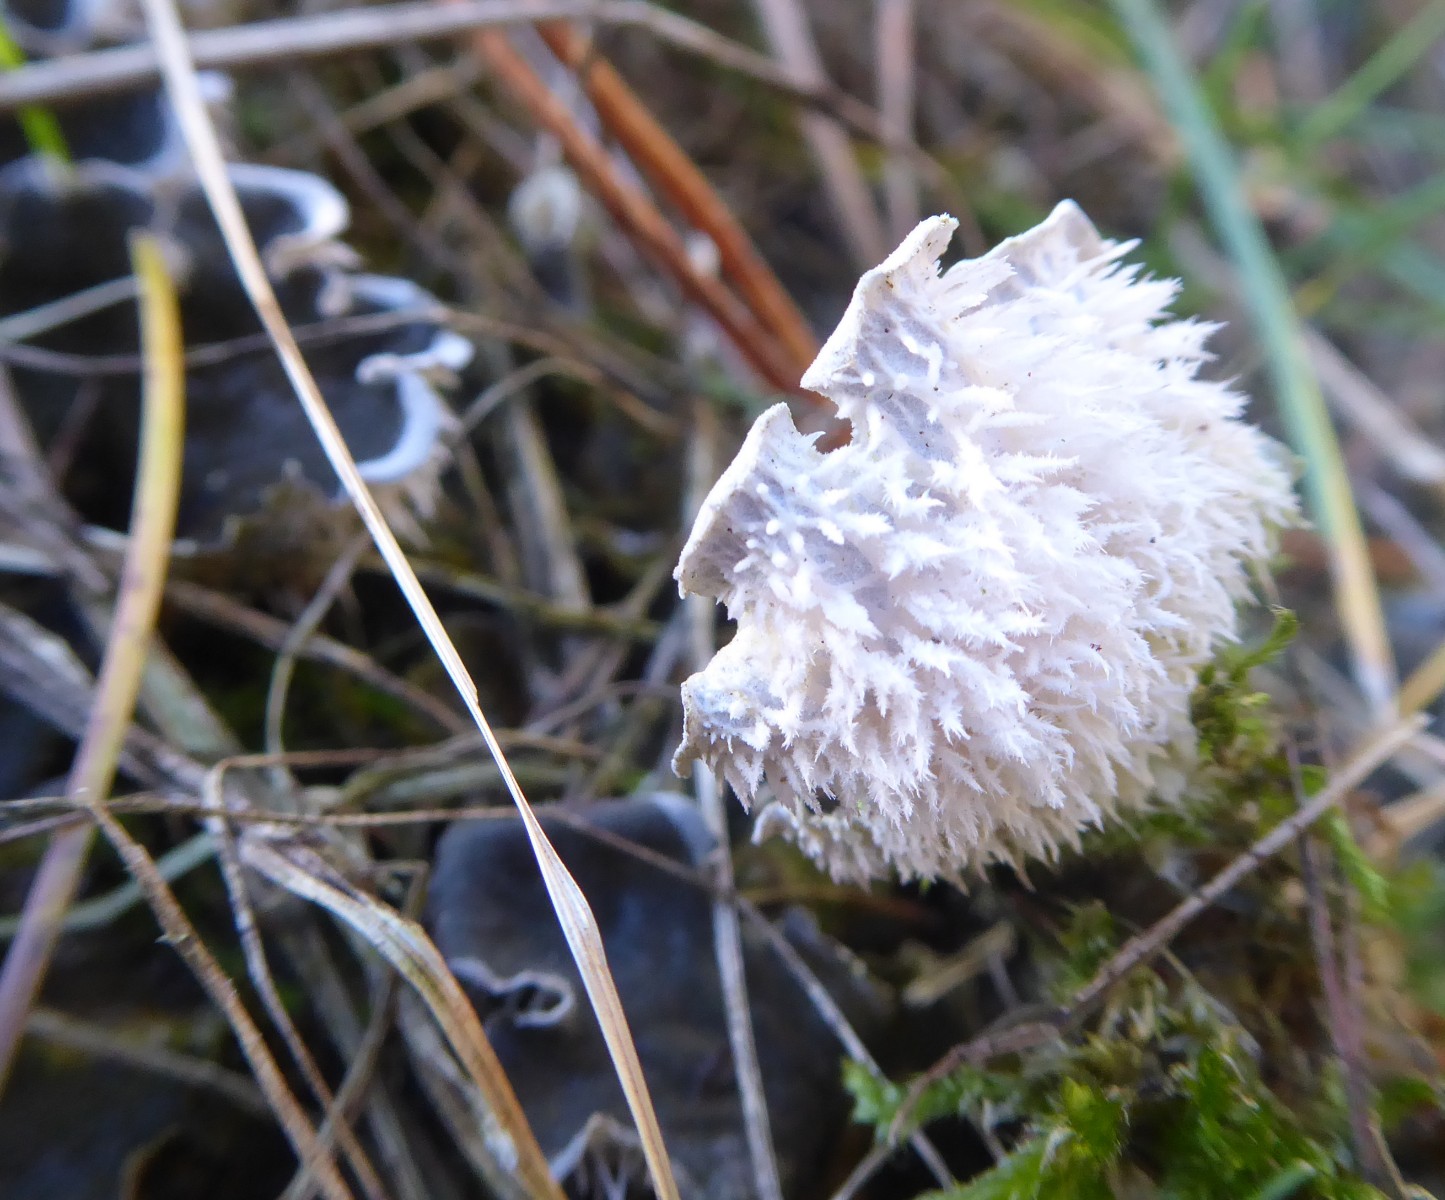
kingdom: Fungi
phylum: Ascomycota
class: Lecanoromycetes
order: Peltigerales
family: Peltigeraceae
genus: Peltigera
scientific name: Peltigera canina
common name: hunde-skjoldlav
